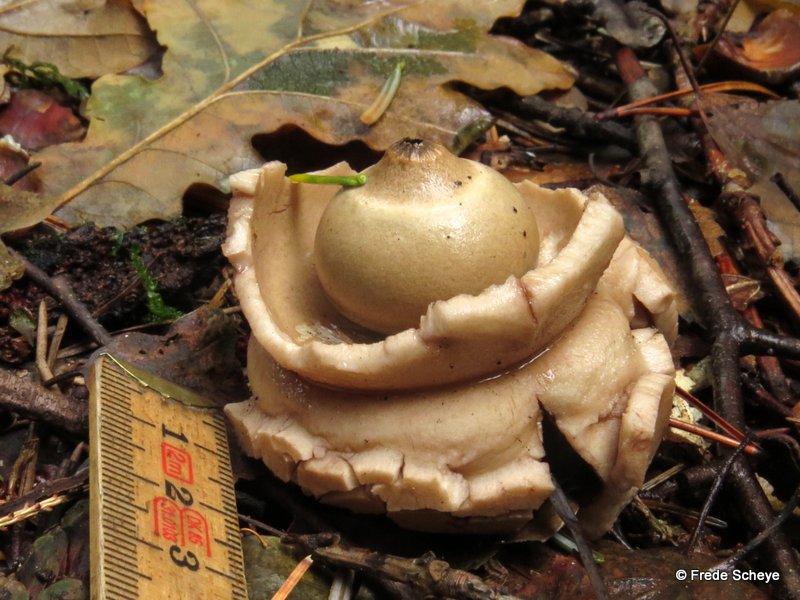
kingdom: Fungi
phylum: Basidiomycota
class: Agaricomycetes
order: Geastrales
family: Geastraceae
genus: Geastrum
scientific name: Geastrum michelianum
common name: kødet stjernebold
